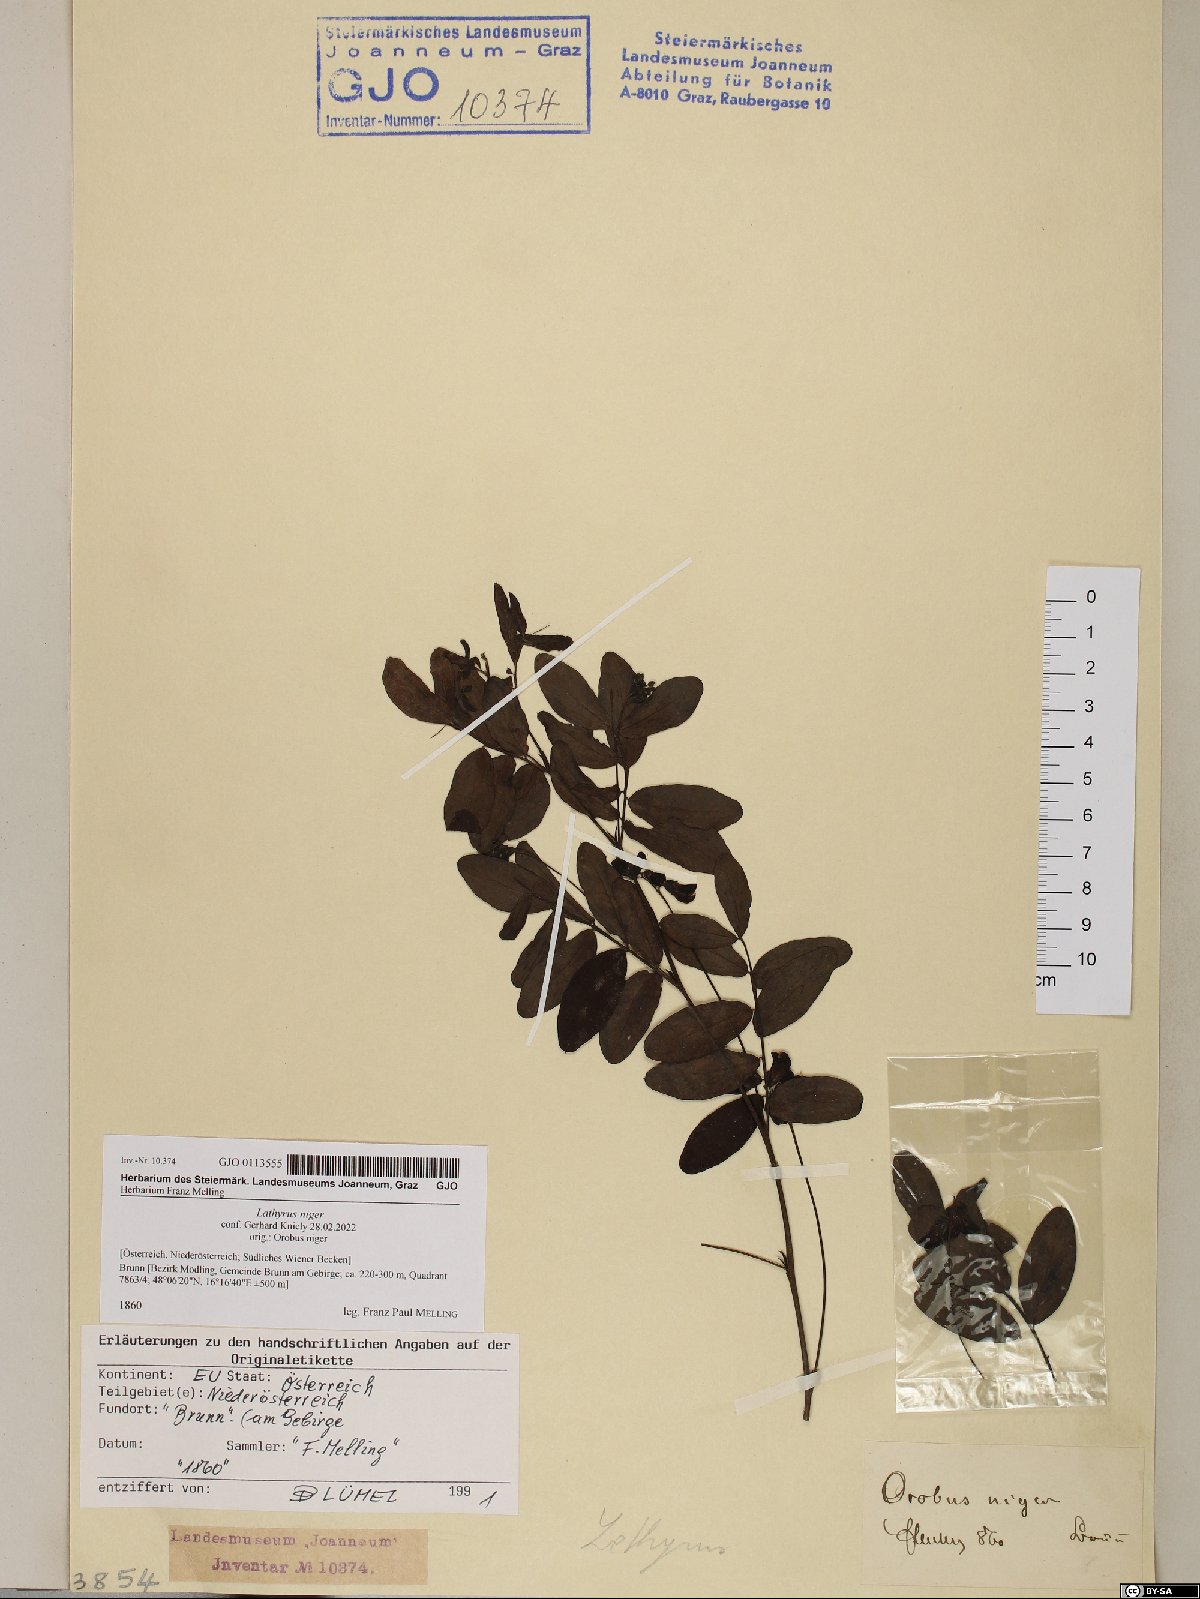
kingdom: Plantae
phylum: Tracheophyta
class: Magnoliopsida
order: Fabales
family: Fabaceae
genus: Lathyrus
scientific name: Lathyrus niger
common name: Black pea
